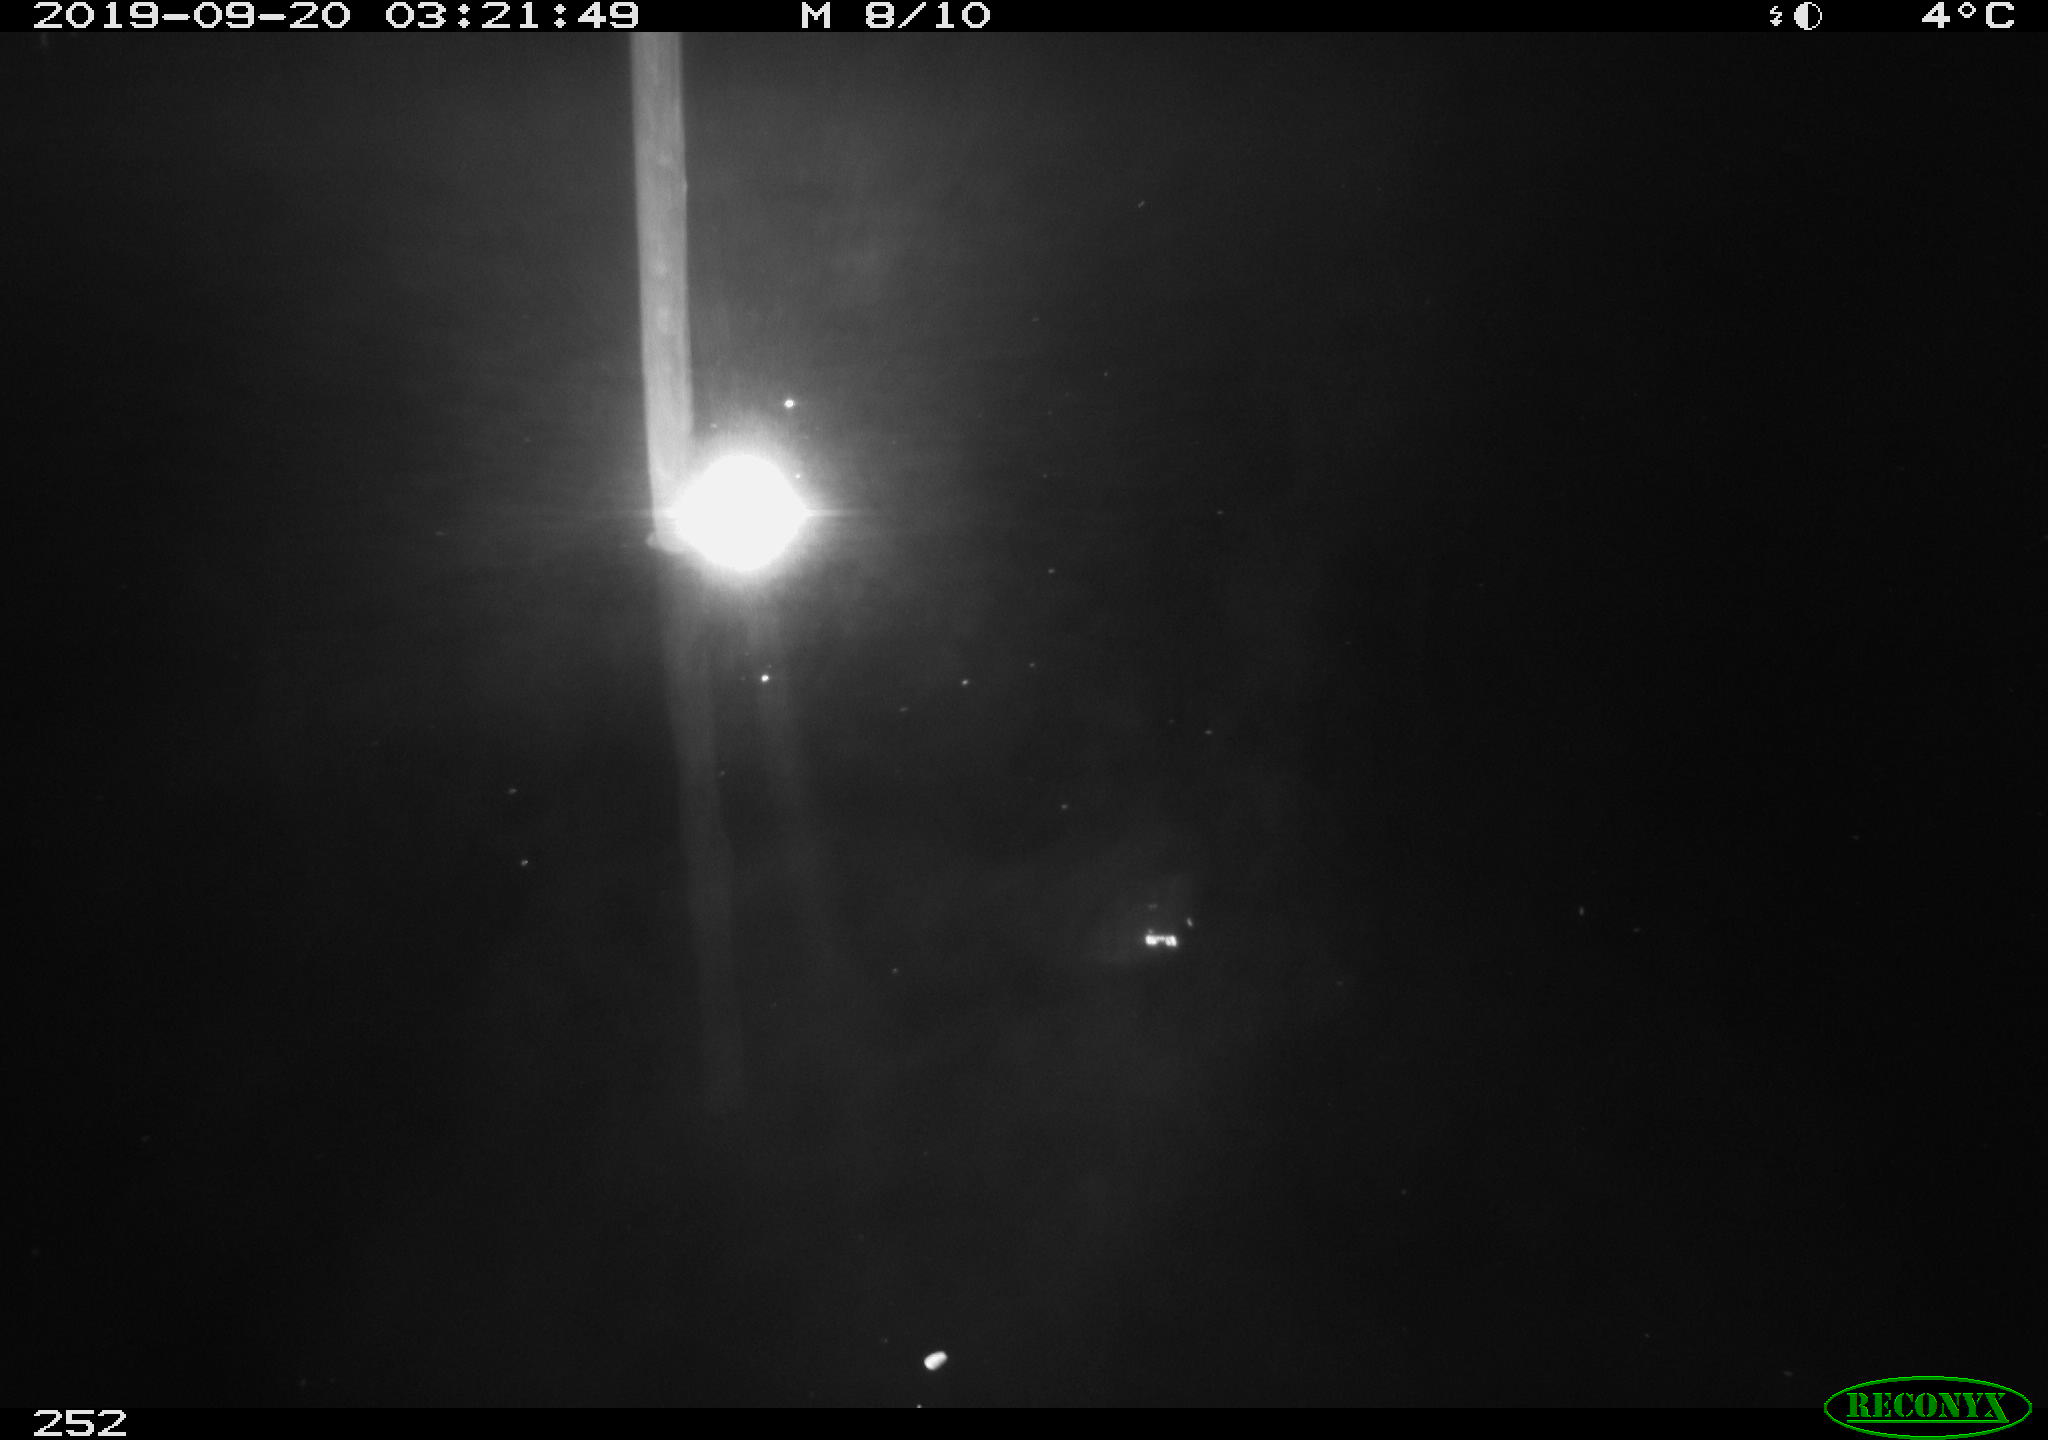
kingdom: Animalia
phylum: Chordata
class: Aves
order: Anseriformes
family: Anatidae
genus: Anas
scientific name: Anas platyrhynchos
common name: Mallard
